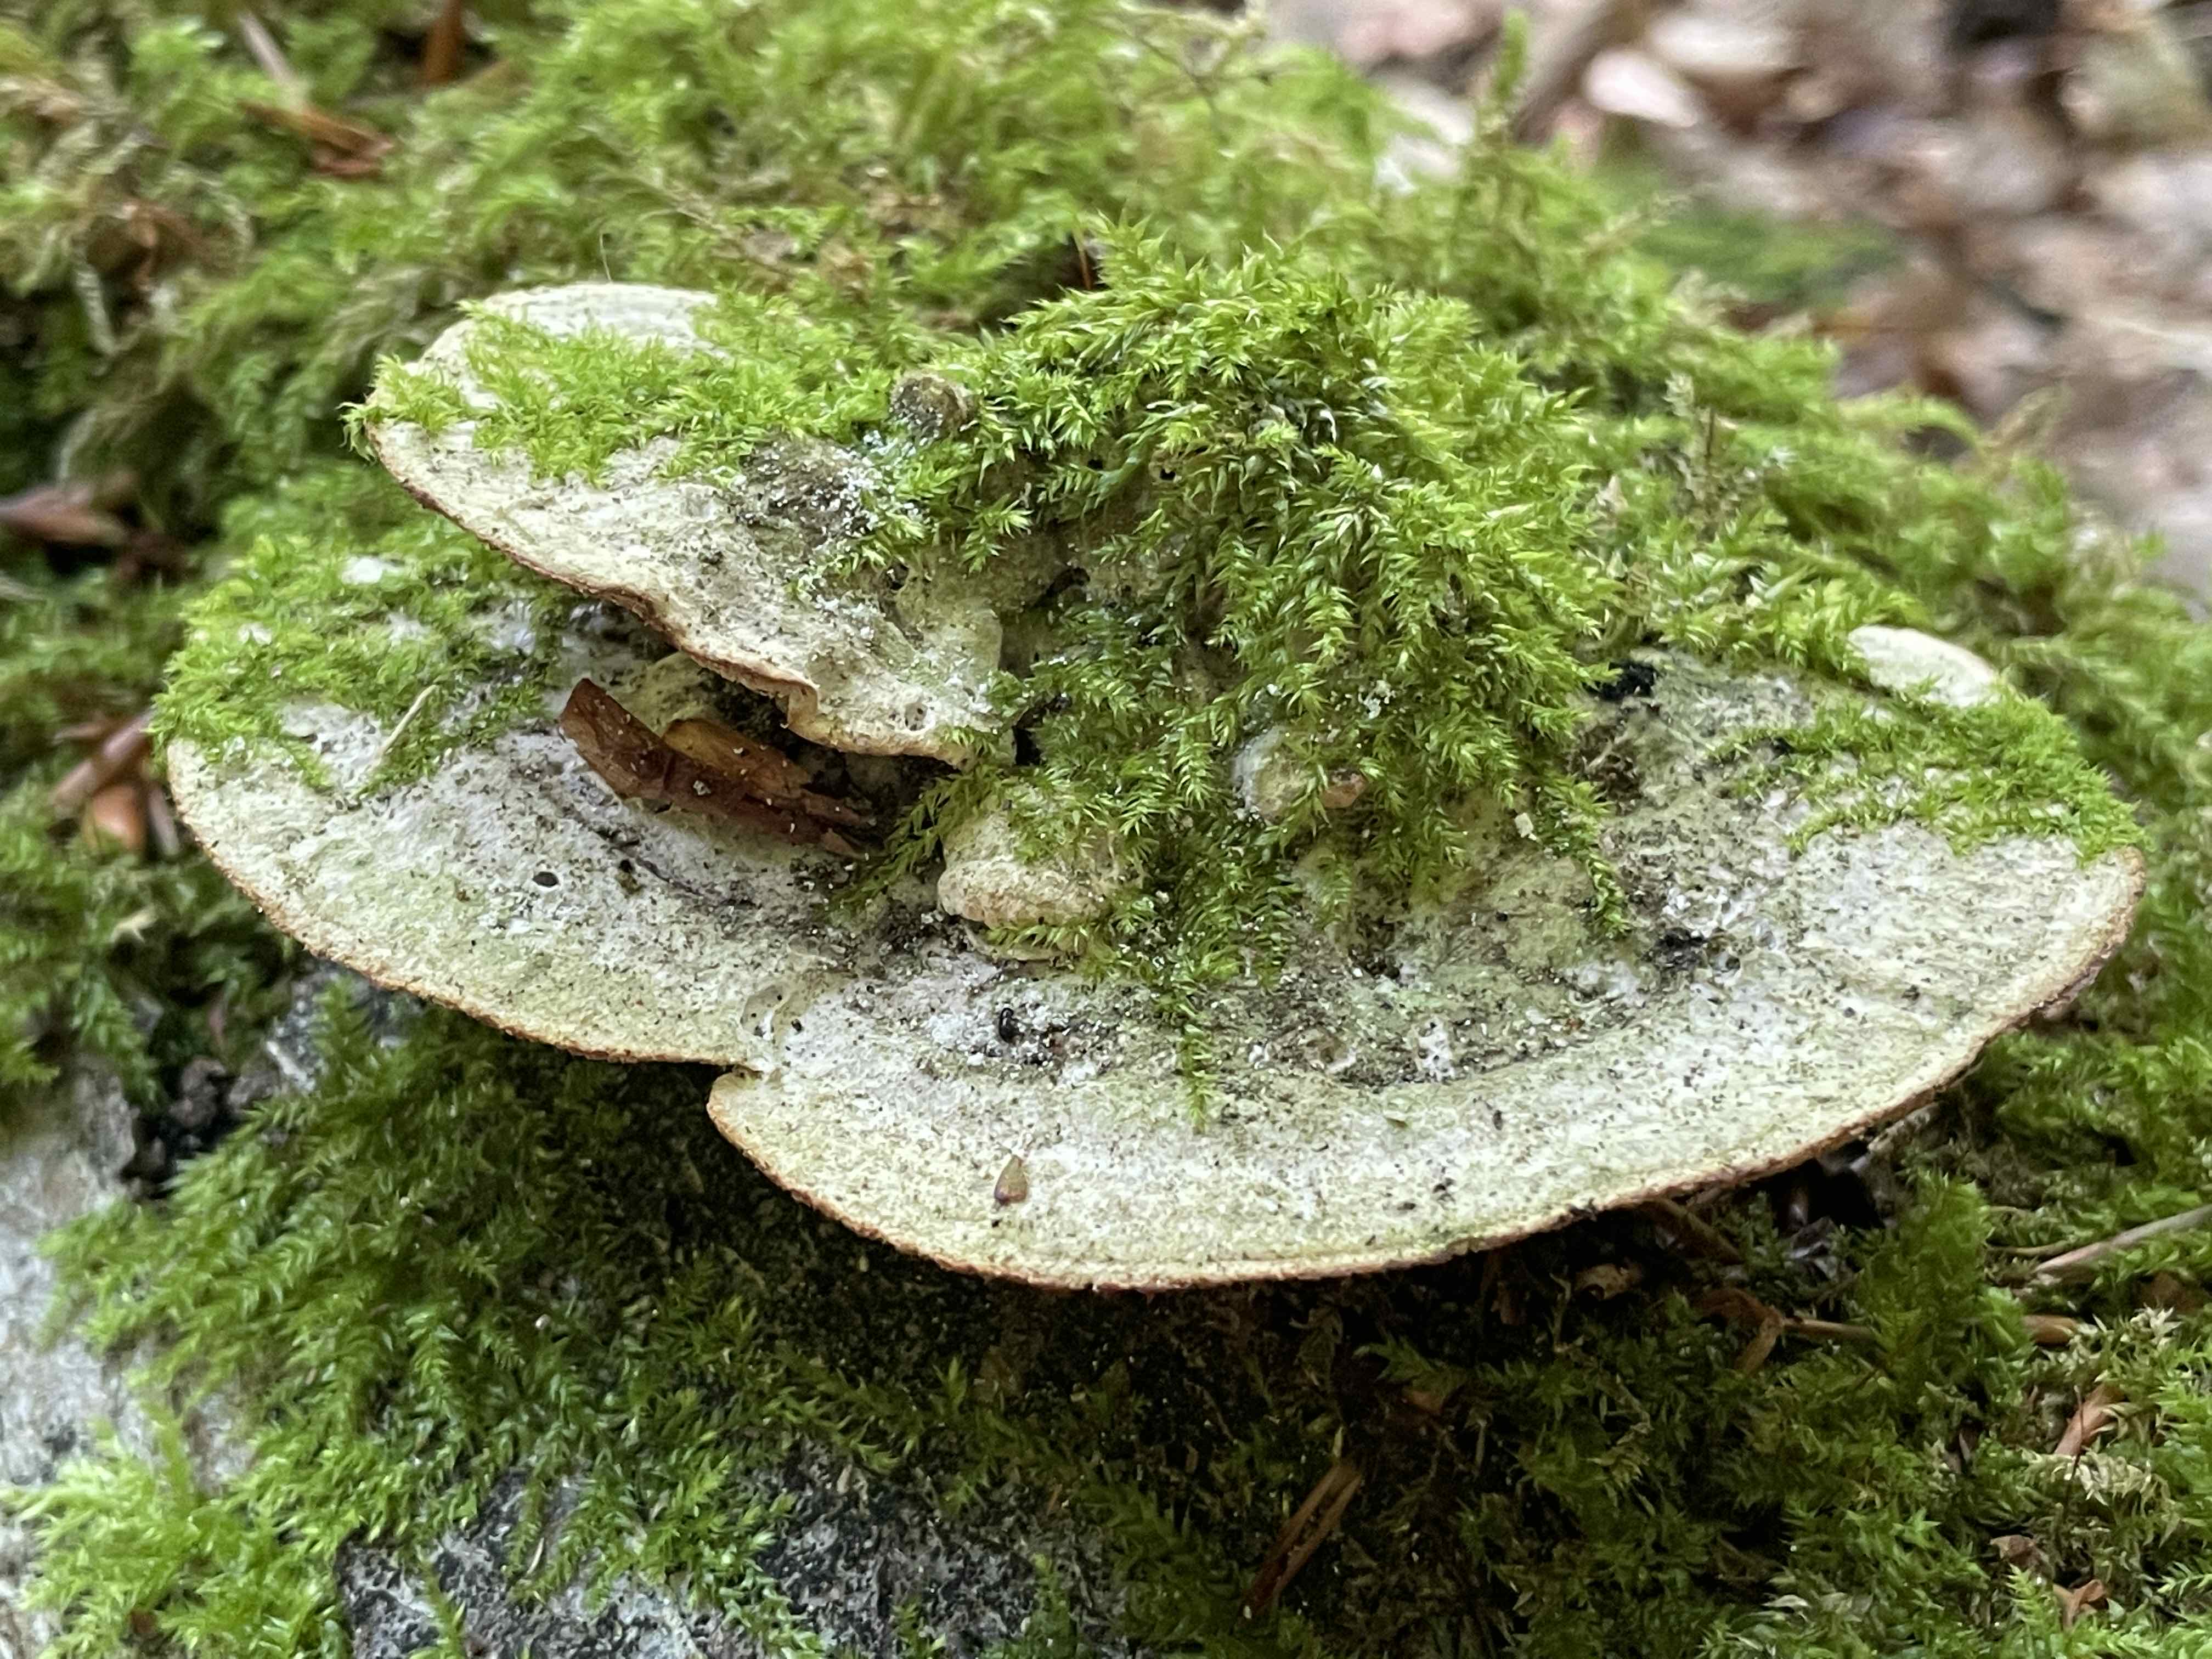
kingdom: Fungi
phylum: Basidiomycota
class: Agaricomycetes
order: Polyporales
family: Polyporaceae
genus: Trametes
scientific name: Trametes gibbosa
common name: puklet læderporesvamp
